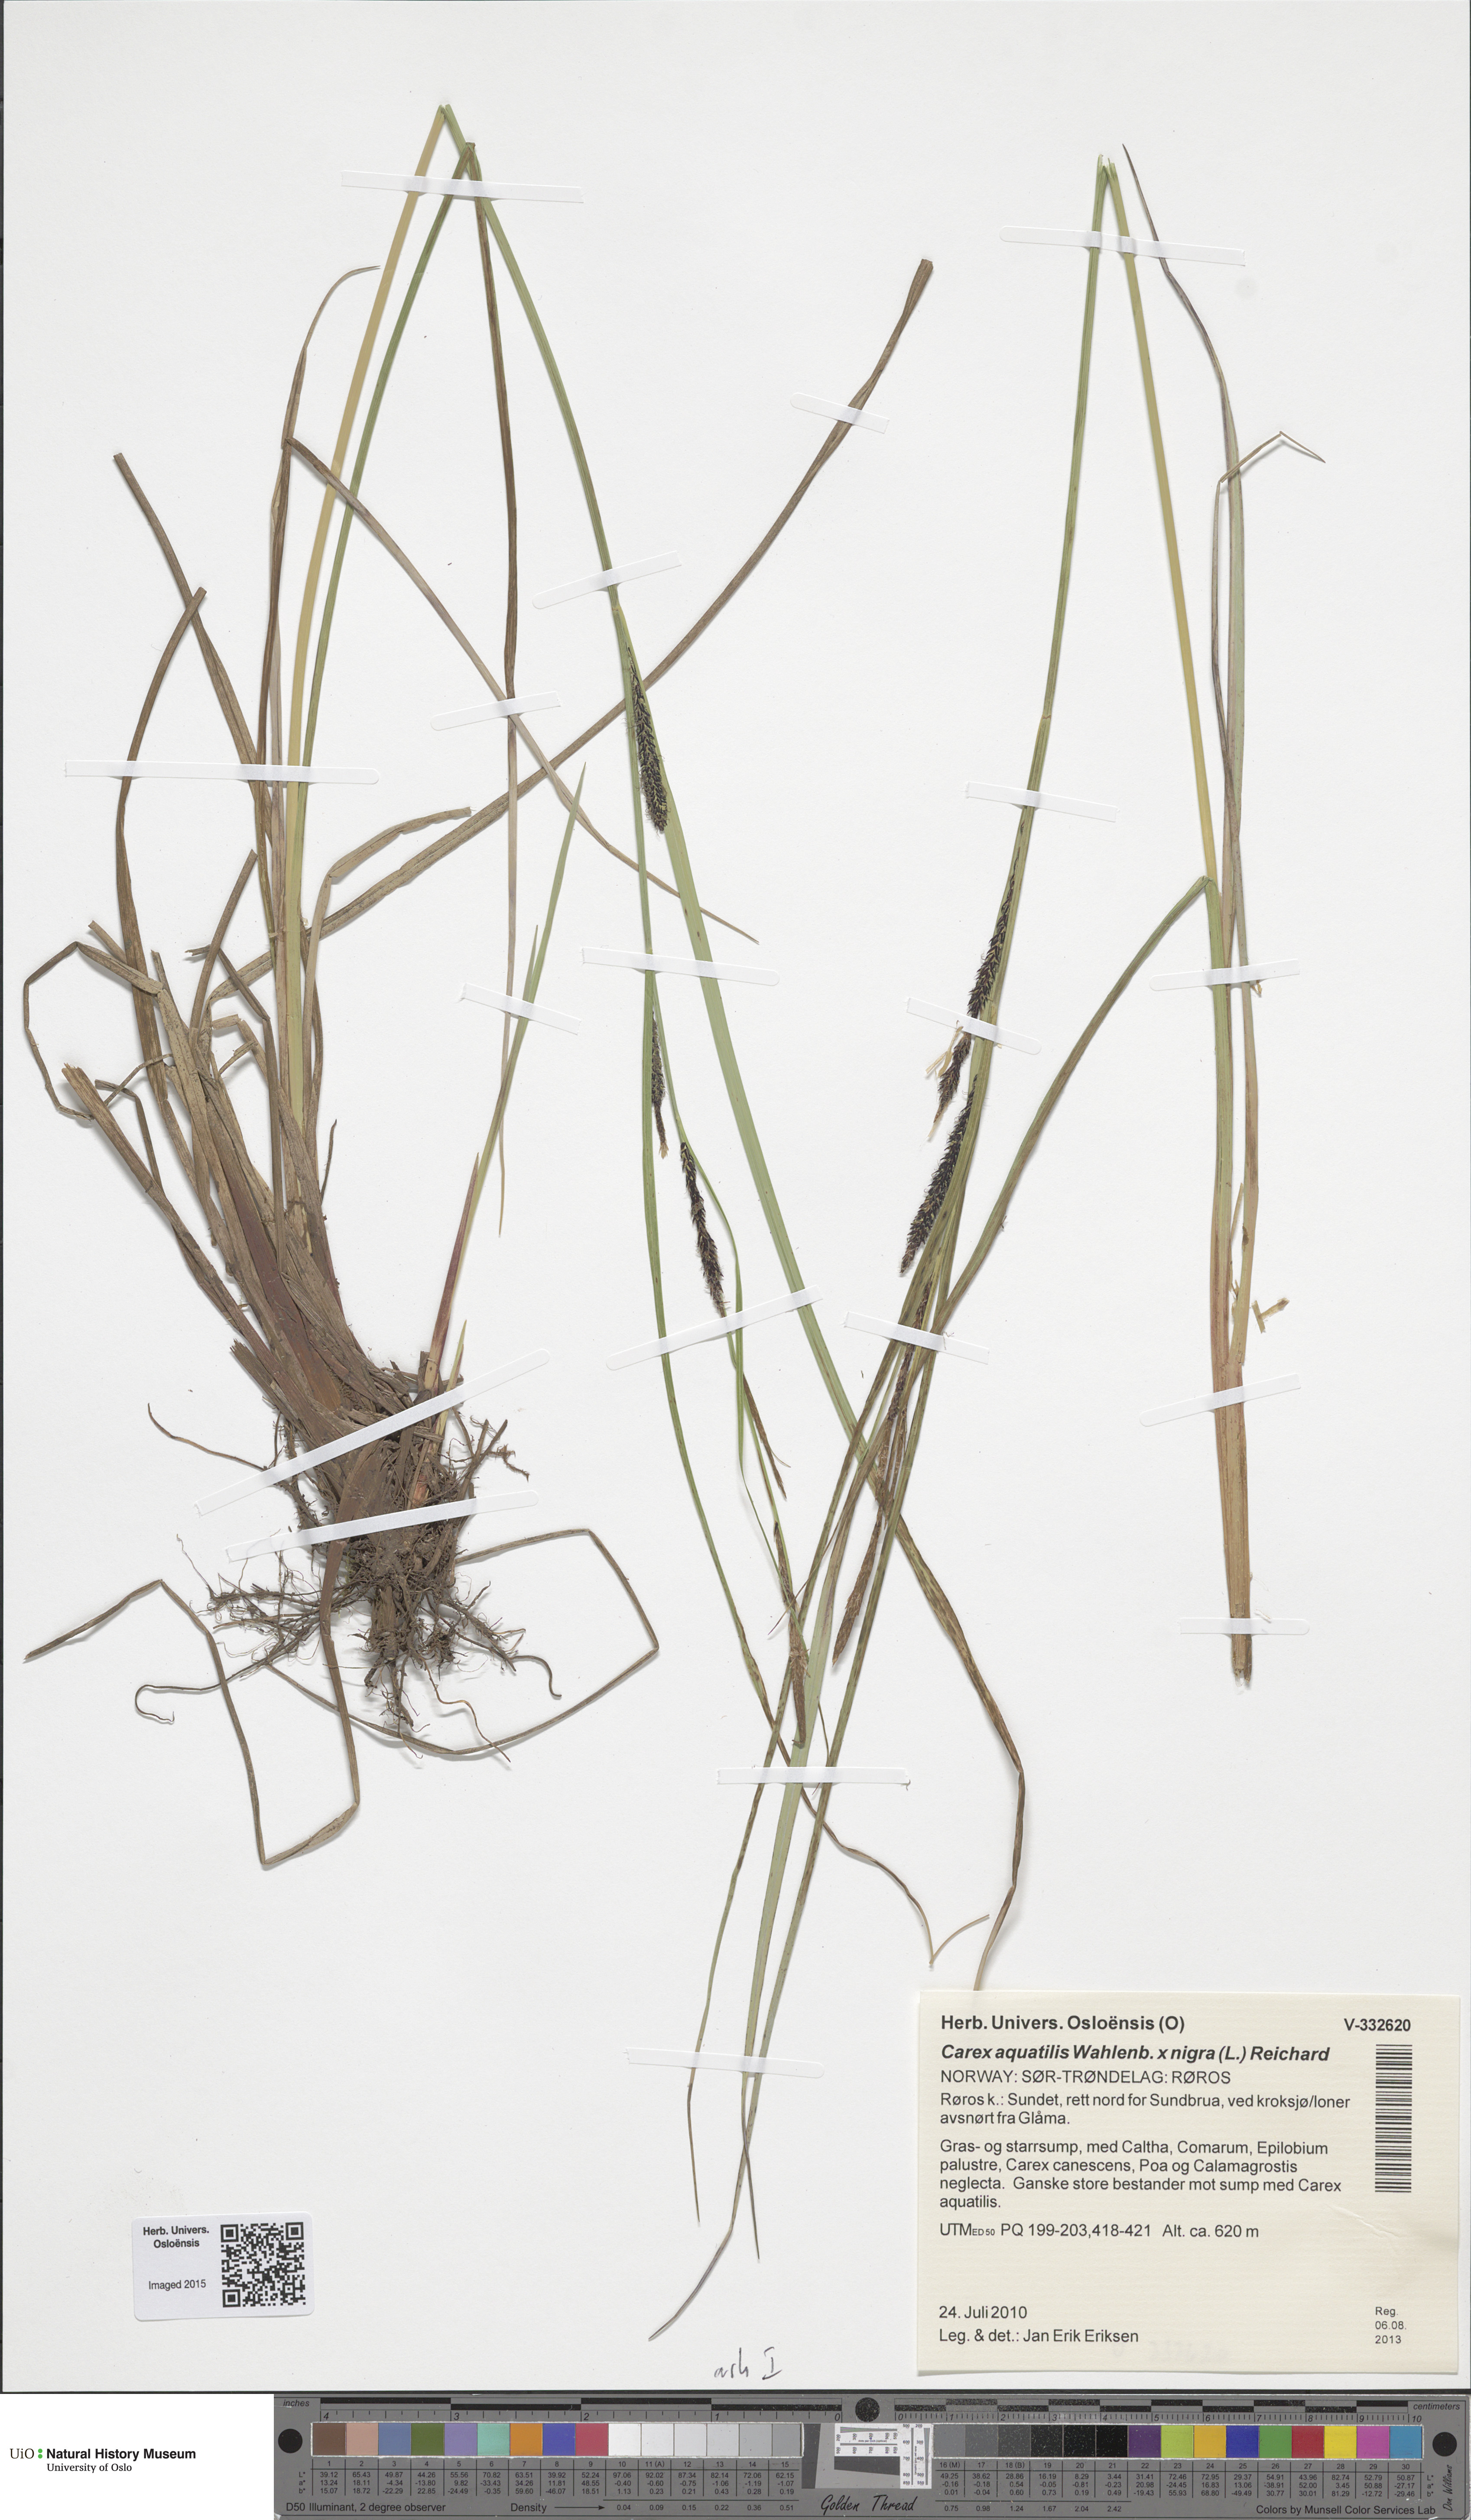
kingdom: Plantae
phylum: Tracheophyta
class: Liliopsida
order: Poales
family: Cyperaceae
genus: Carex
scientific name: Carex
